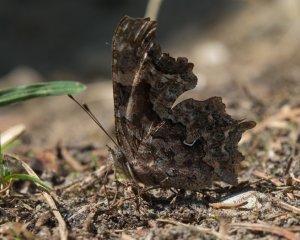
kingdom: Animalia
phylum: Arthropoda
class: Insecta
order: Lepidoptera
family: Nymphalidae
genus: Polygonia
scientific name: Polygonia faunus
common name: Green Comma
